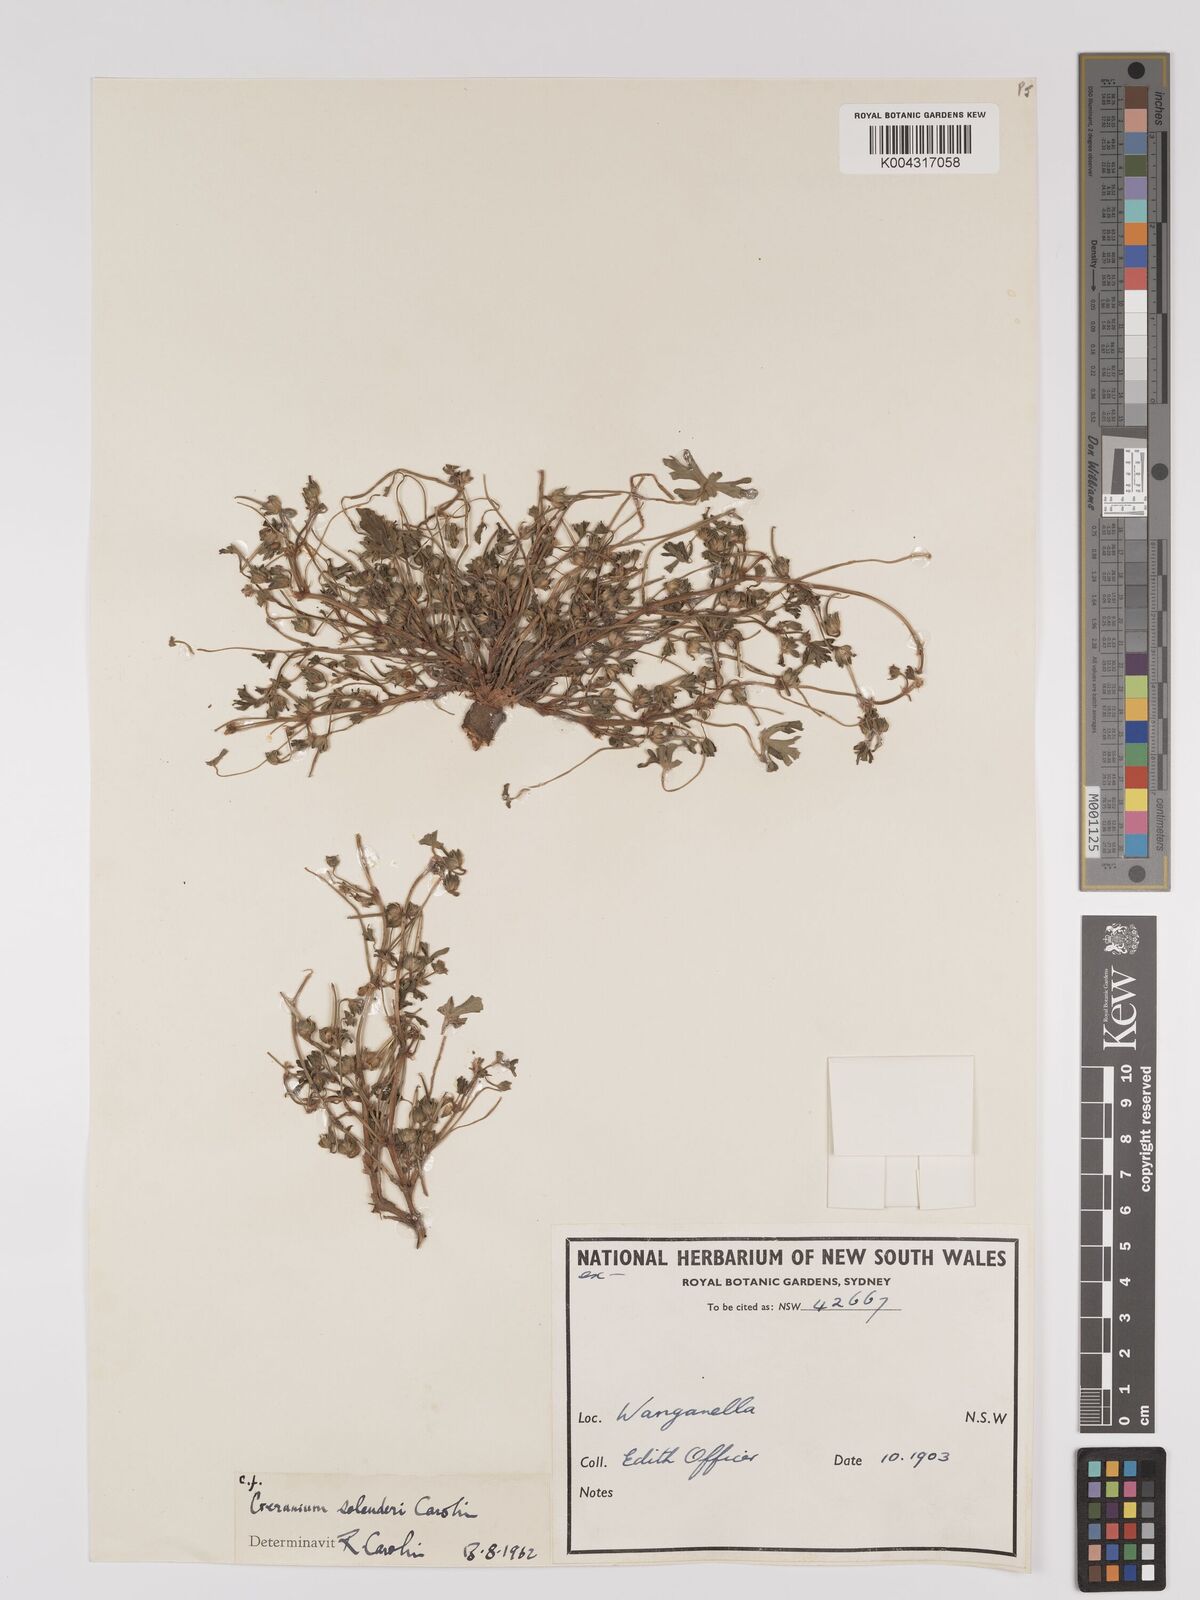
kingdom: Plantae
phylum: Tracheophyta
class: Magnoliopsida
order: Geraniales
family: Geraniaceae
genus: Geranium
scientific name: Geranium solanderi
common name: Solander's geranium
